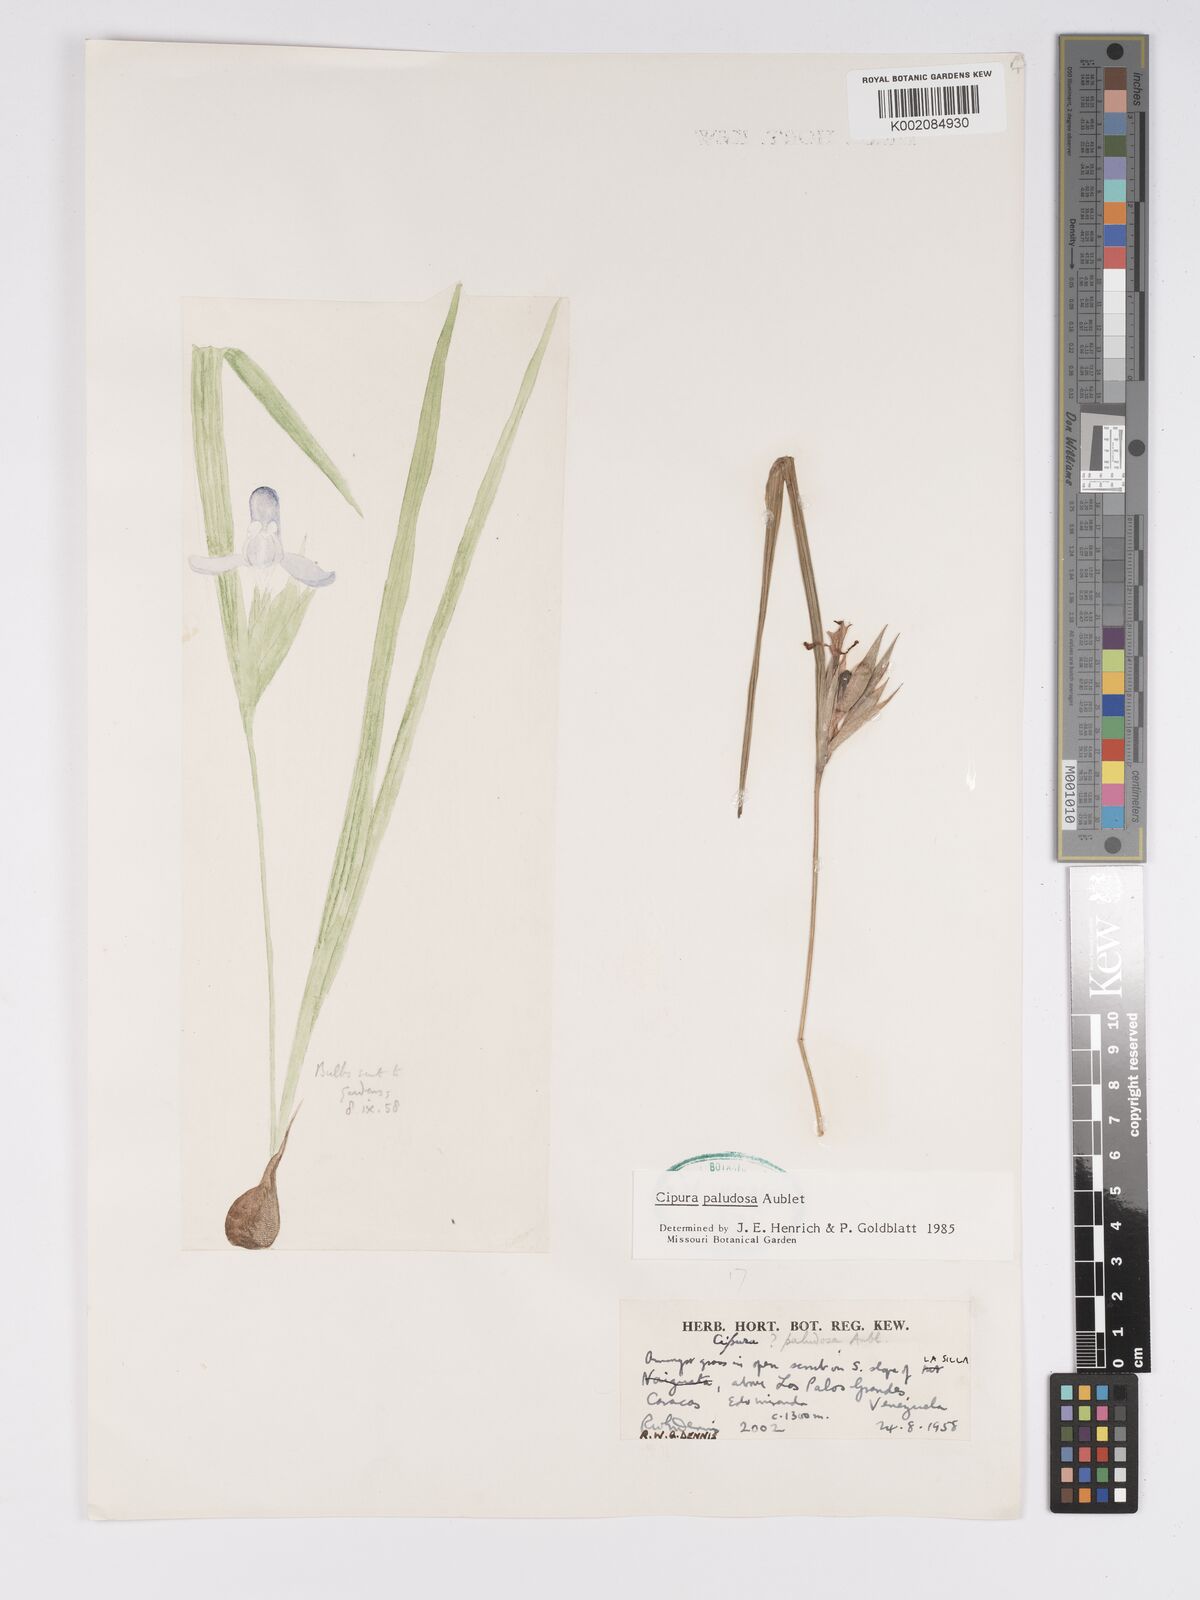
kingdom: Plantae
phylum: Tracheophyta
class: Liliopsida
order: Asparagales
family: Iridaceae
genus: Cipura
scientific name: Cipura paludosa
